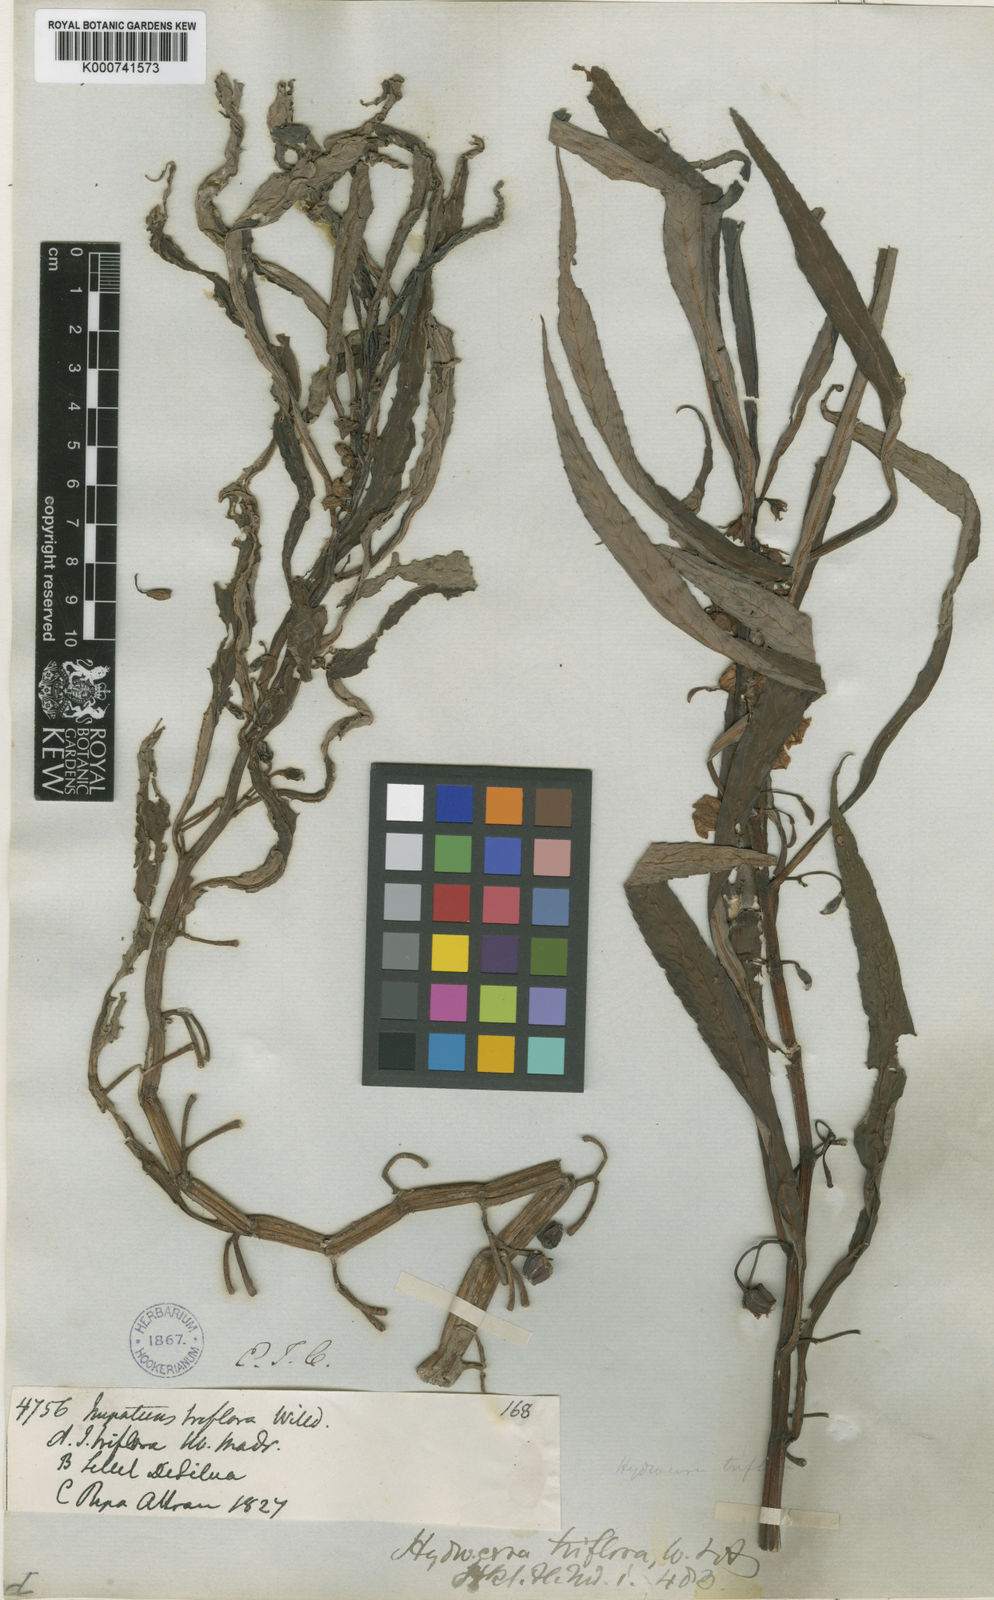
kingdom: Plantae
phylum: Tracheophyta
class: Magnoliopsida
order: Ericales
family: Balsaminaceae
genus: Hydrocera
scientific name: Hydrocera triflora
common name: Marsh henna
